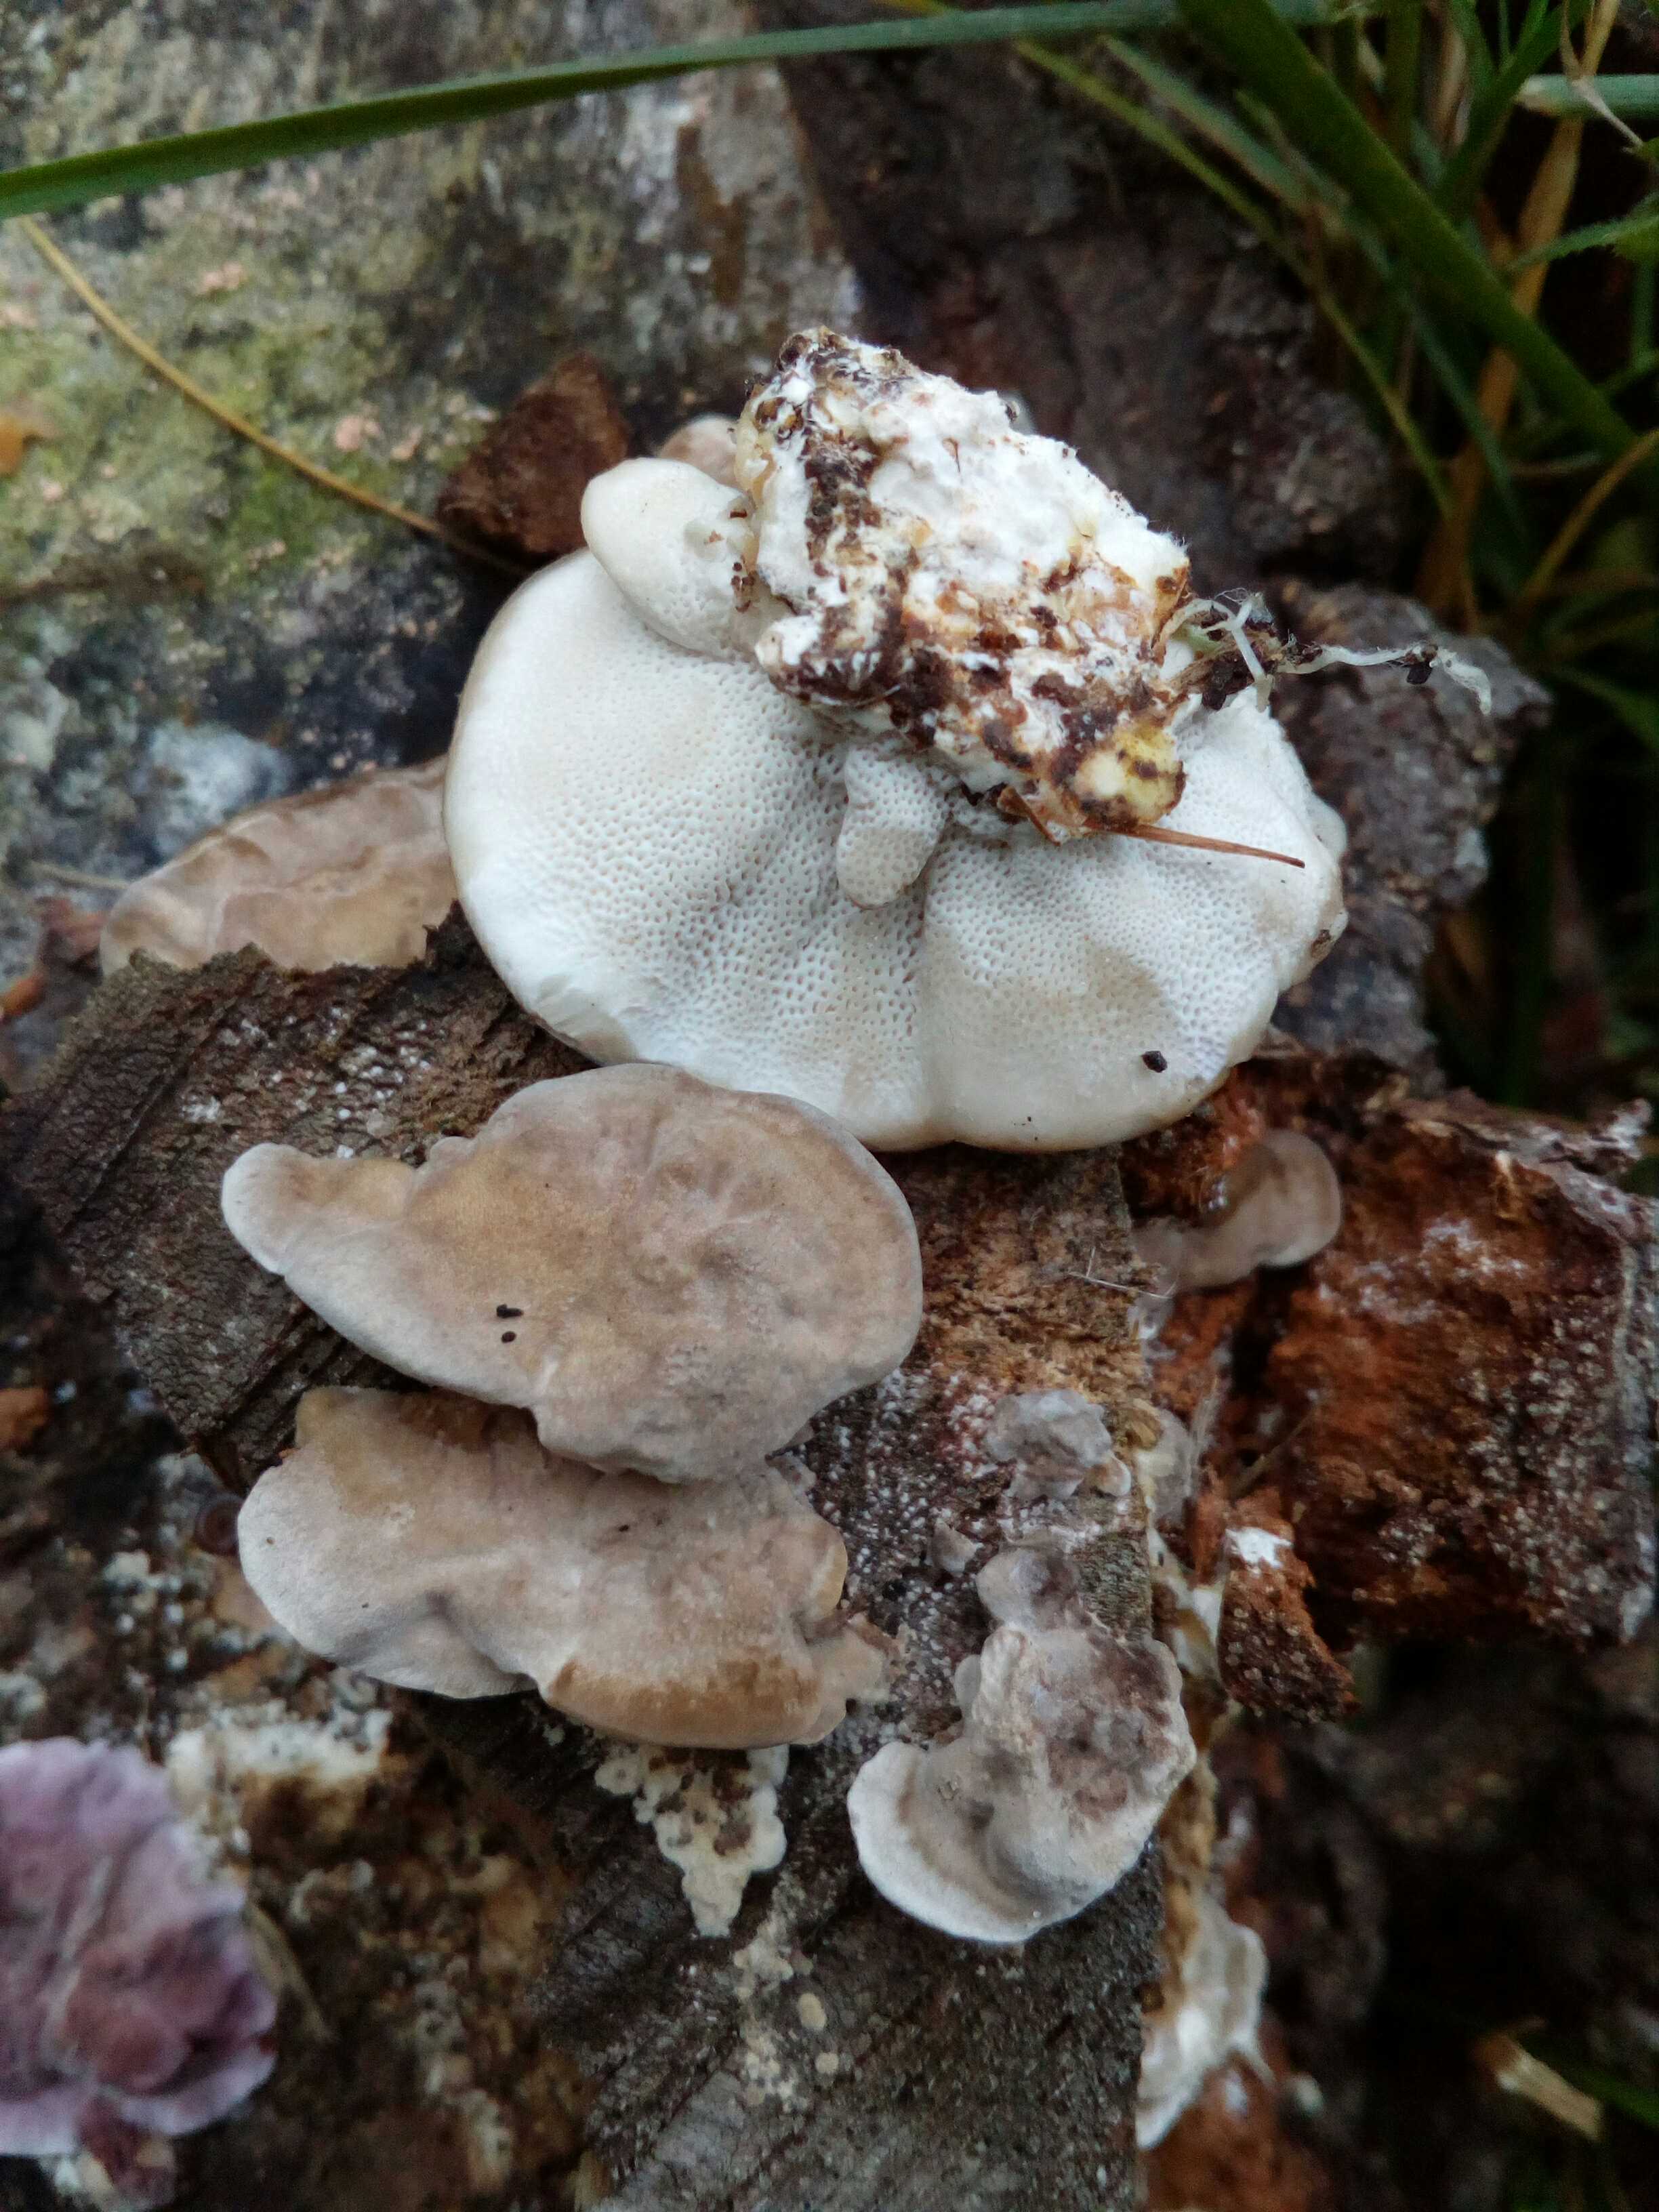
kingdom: Fungi
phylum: Basidiomycota
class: Agaricomycetes
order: Polyporales
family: Polyporaceae
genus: Trametes
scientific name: Trametes hirsuta
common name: håret læderporesvamp
